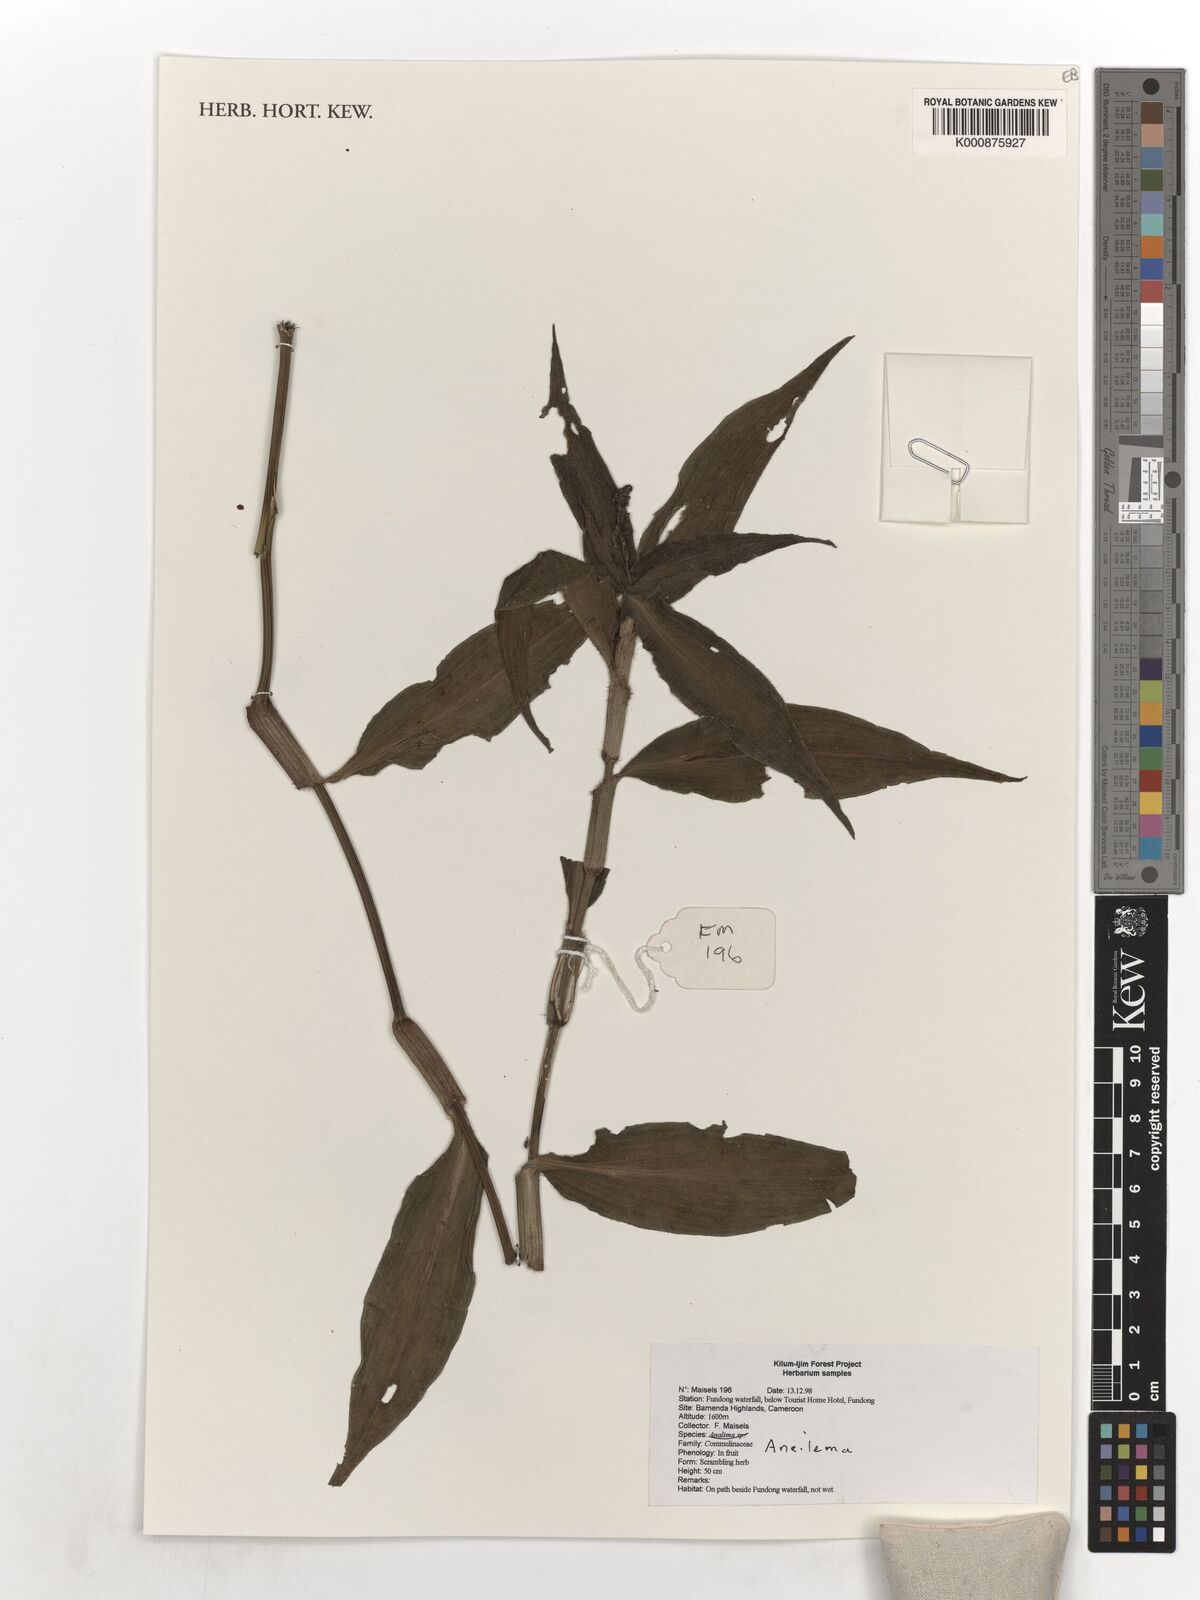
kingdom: Plantae
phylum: Tracheophyta
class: Liliopsida
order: Commelinales
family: Commelinaceae
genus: Aneilema
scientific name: Aneilema
